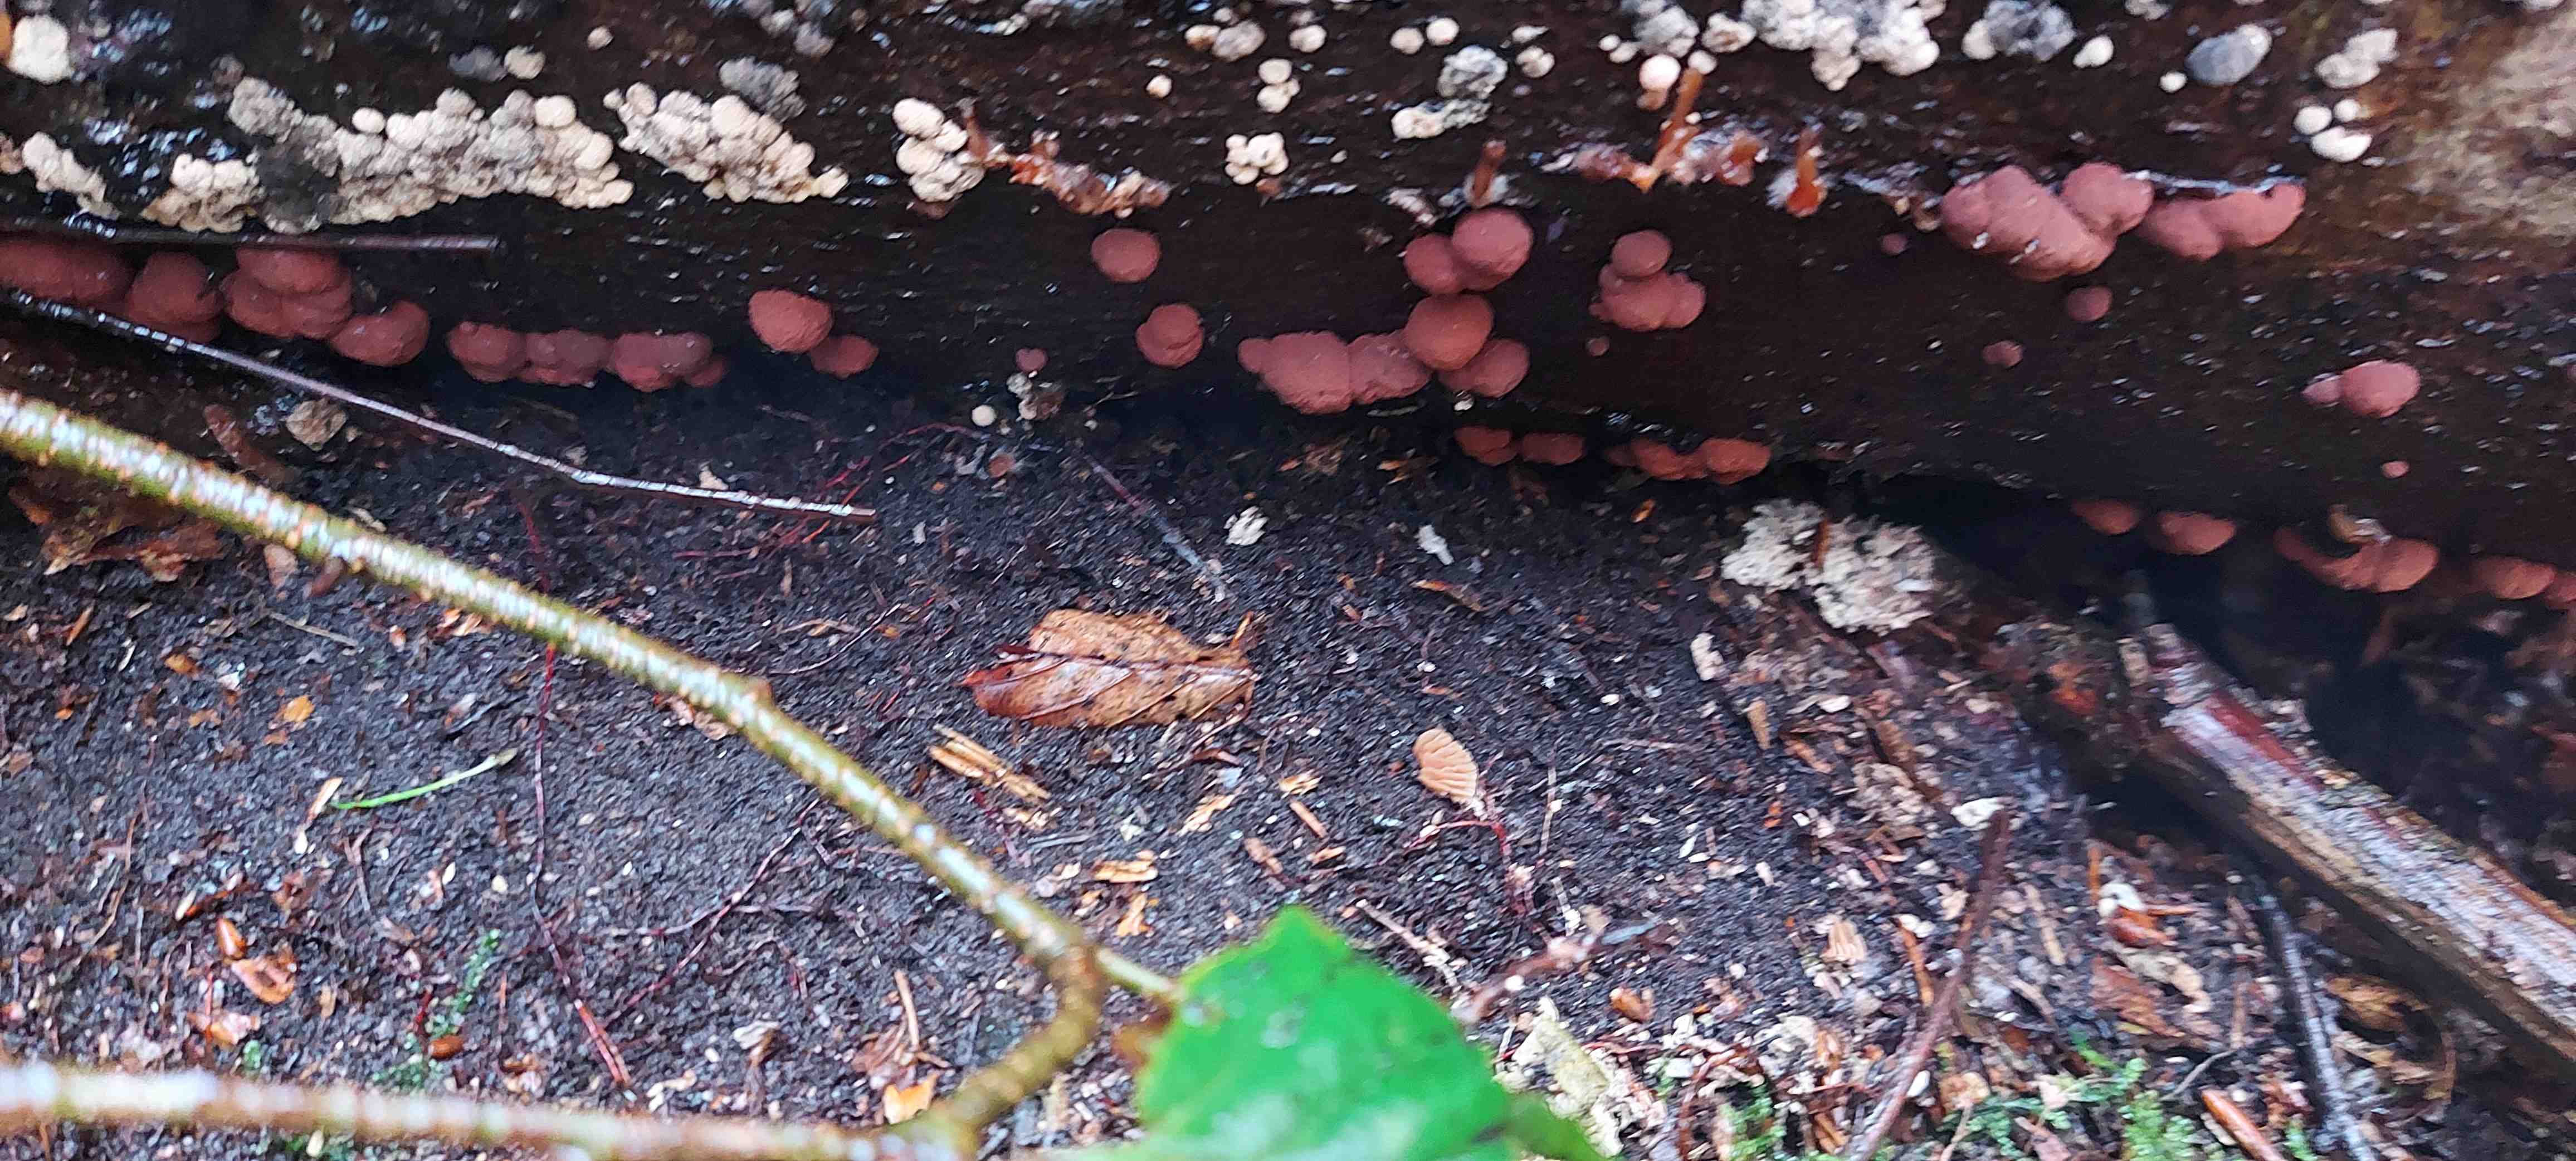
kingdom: Fungi
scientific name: Fungi
